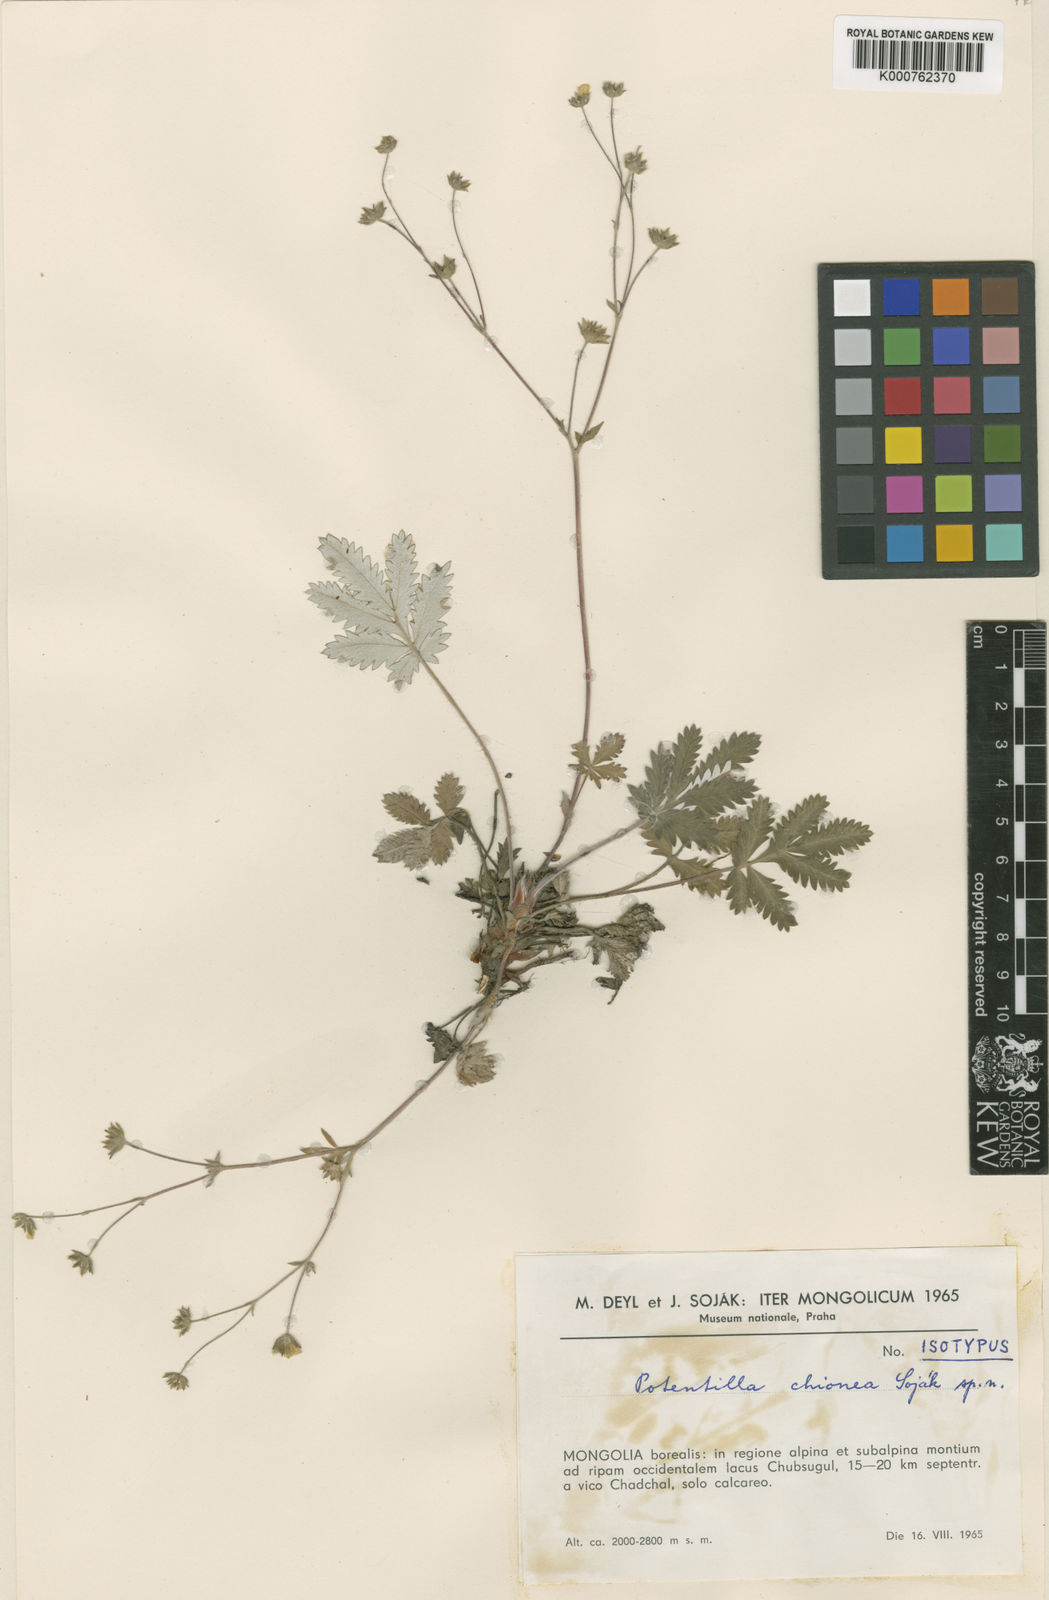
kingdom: Plantae
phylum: Tracheophyta
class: Magnoliopsida
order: Rosales
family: Rosaceae
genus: Potentilla
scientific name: Potentilla
